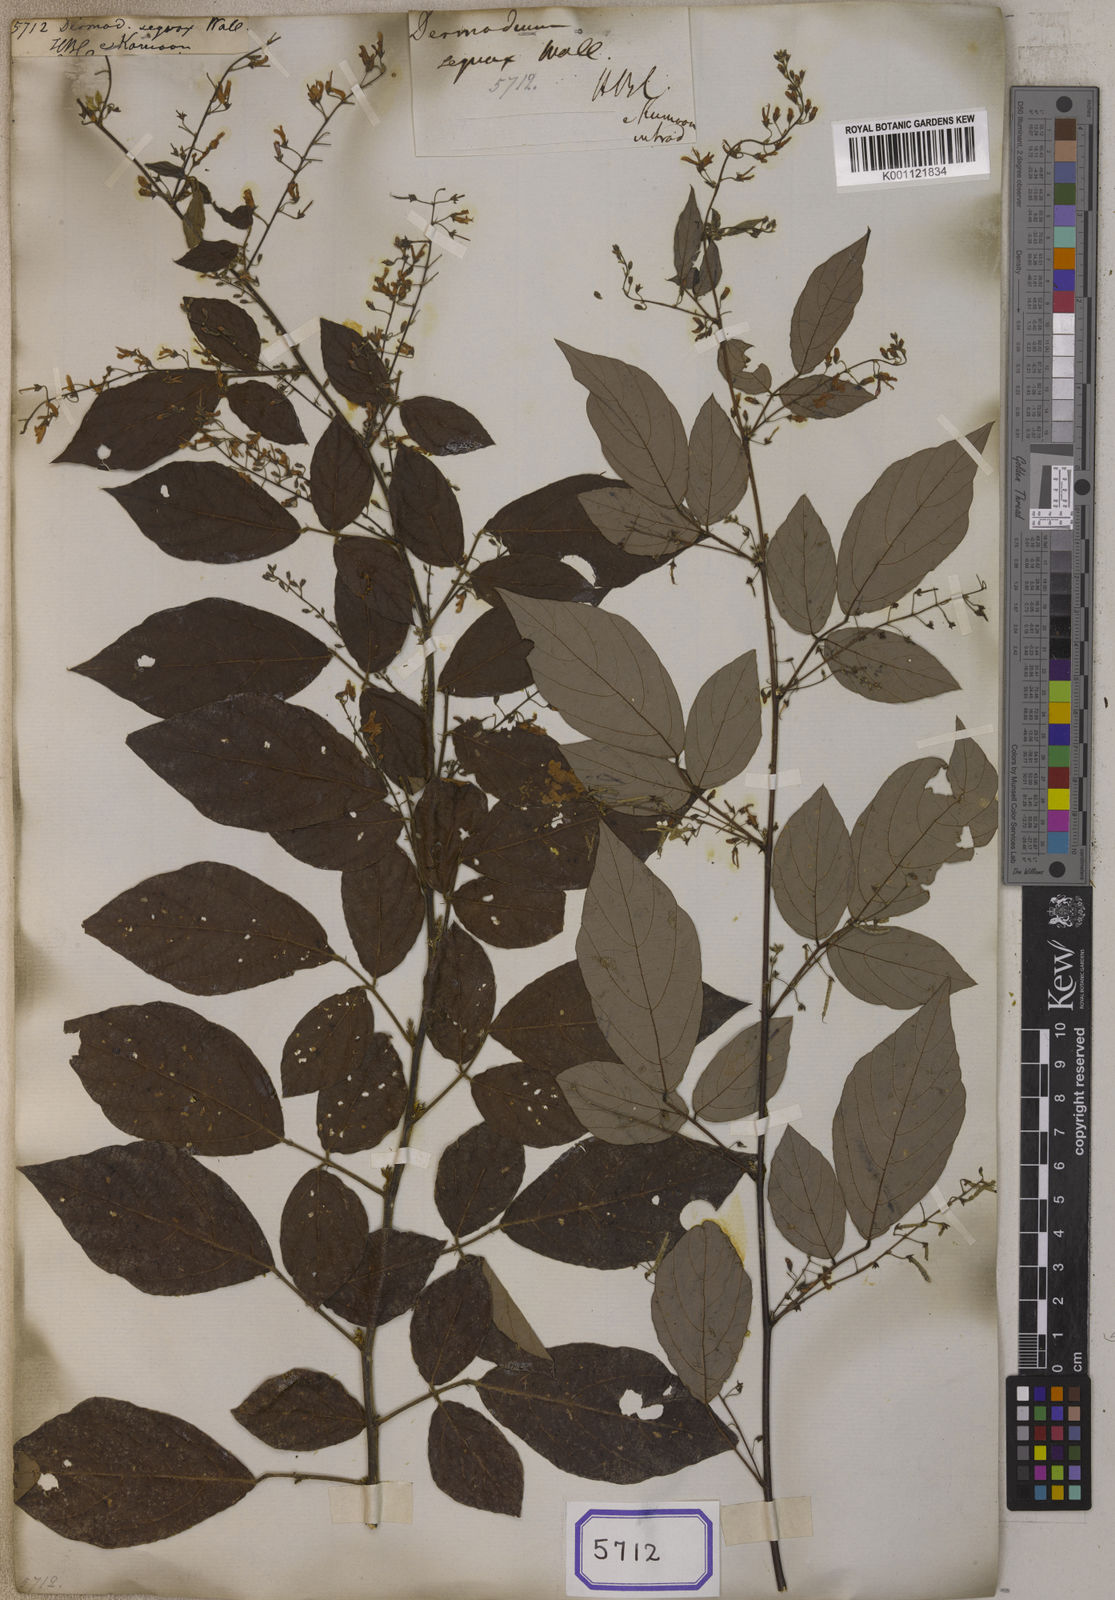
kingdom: Plantae
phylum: Tracheophyta
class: Magnoliopsida
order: Fabales
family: Fabaceae
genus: Puhuaea
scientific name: Puhuaea sequax
